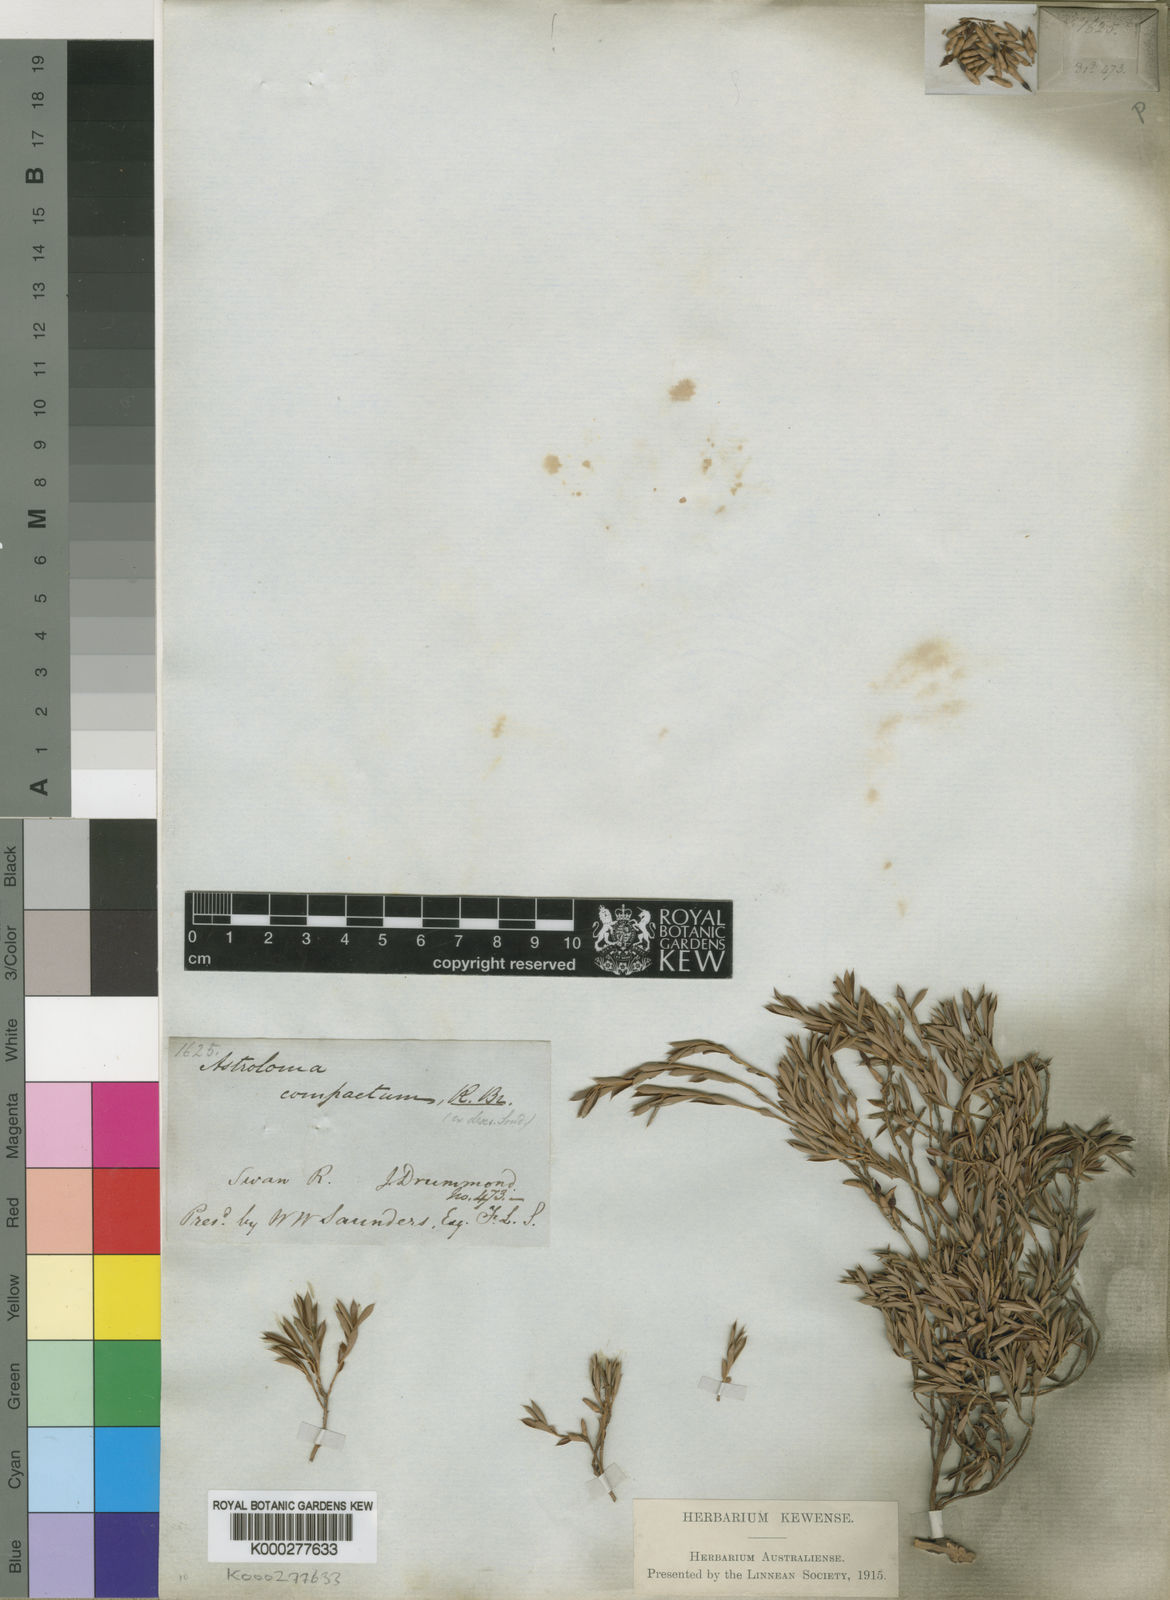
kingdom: Plantae
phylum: Tracheophyta
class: Magnoliopsida
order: Ericales
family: Ericaceae
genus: Styphelia
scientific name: Styphelia compacta
